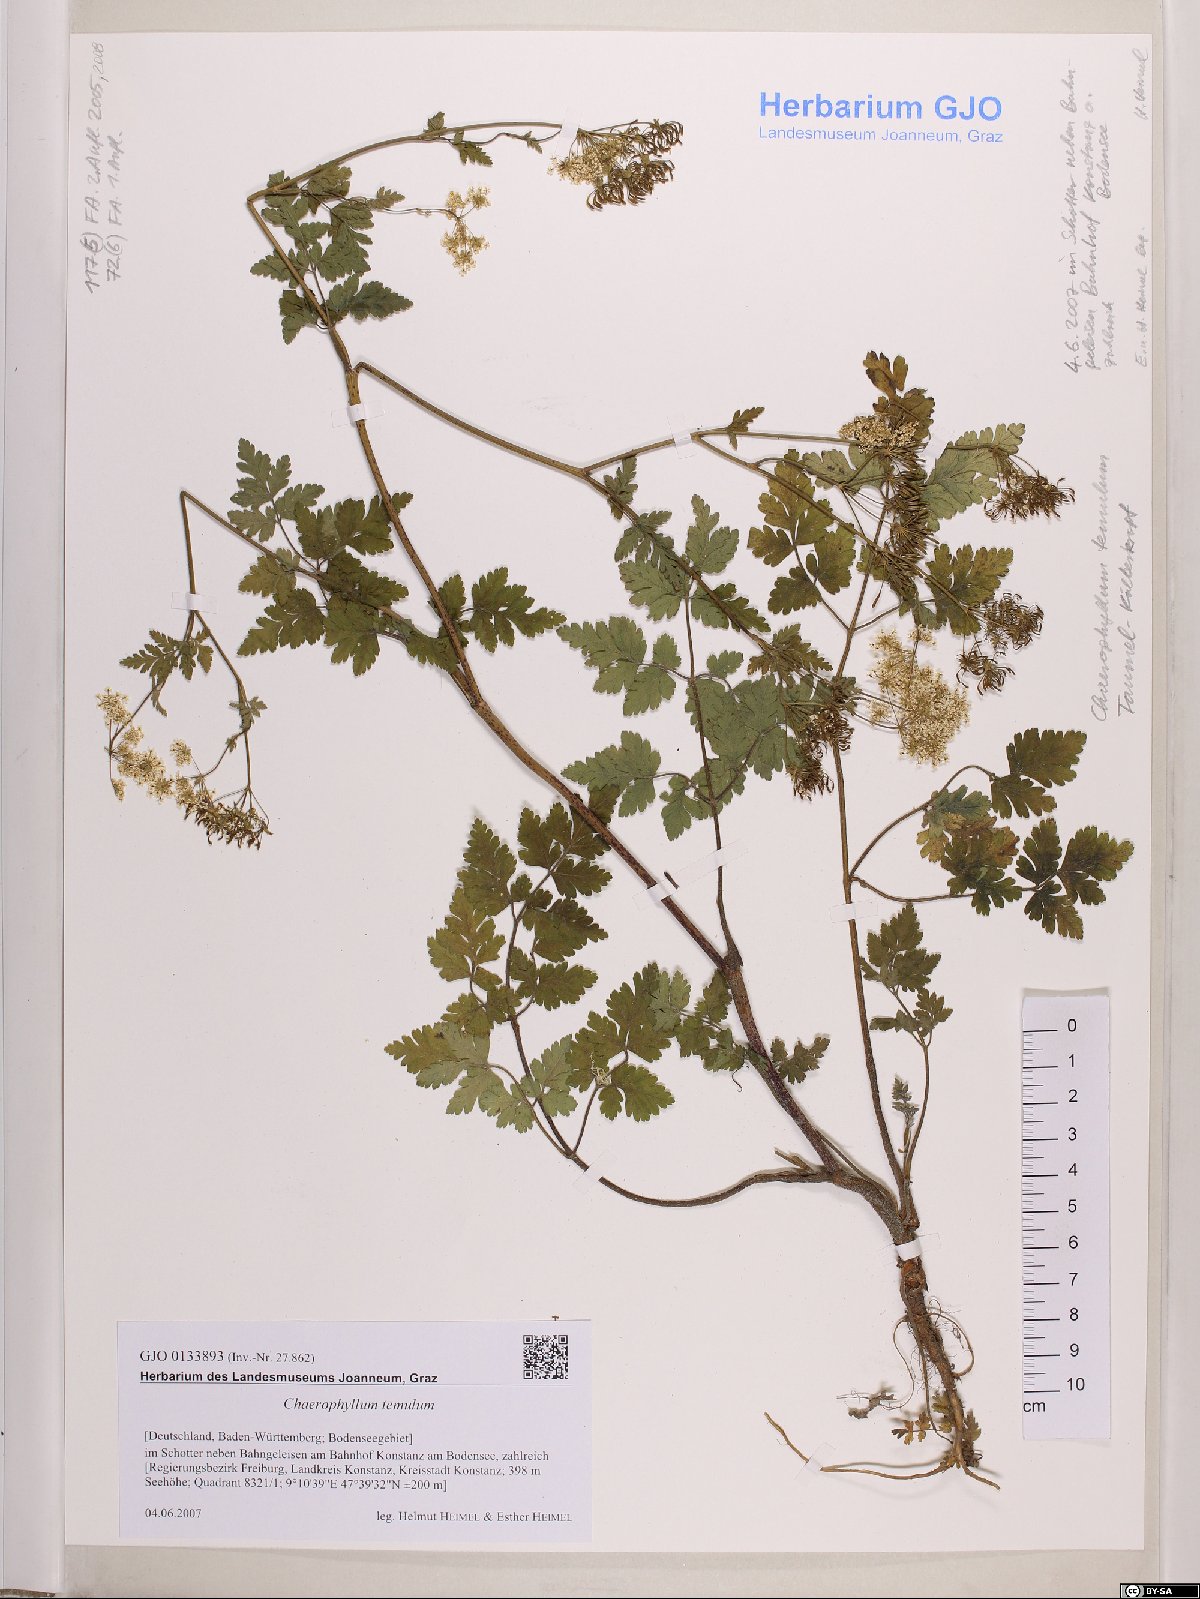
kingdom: Plantae
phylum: Tracheophyta
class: Magnoliopsida
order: Apiales
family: Apiaceae
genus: Chaerophyllum
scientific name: Chaerophyllum temulum
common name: Rough chervil
